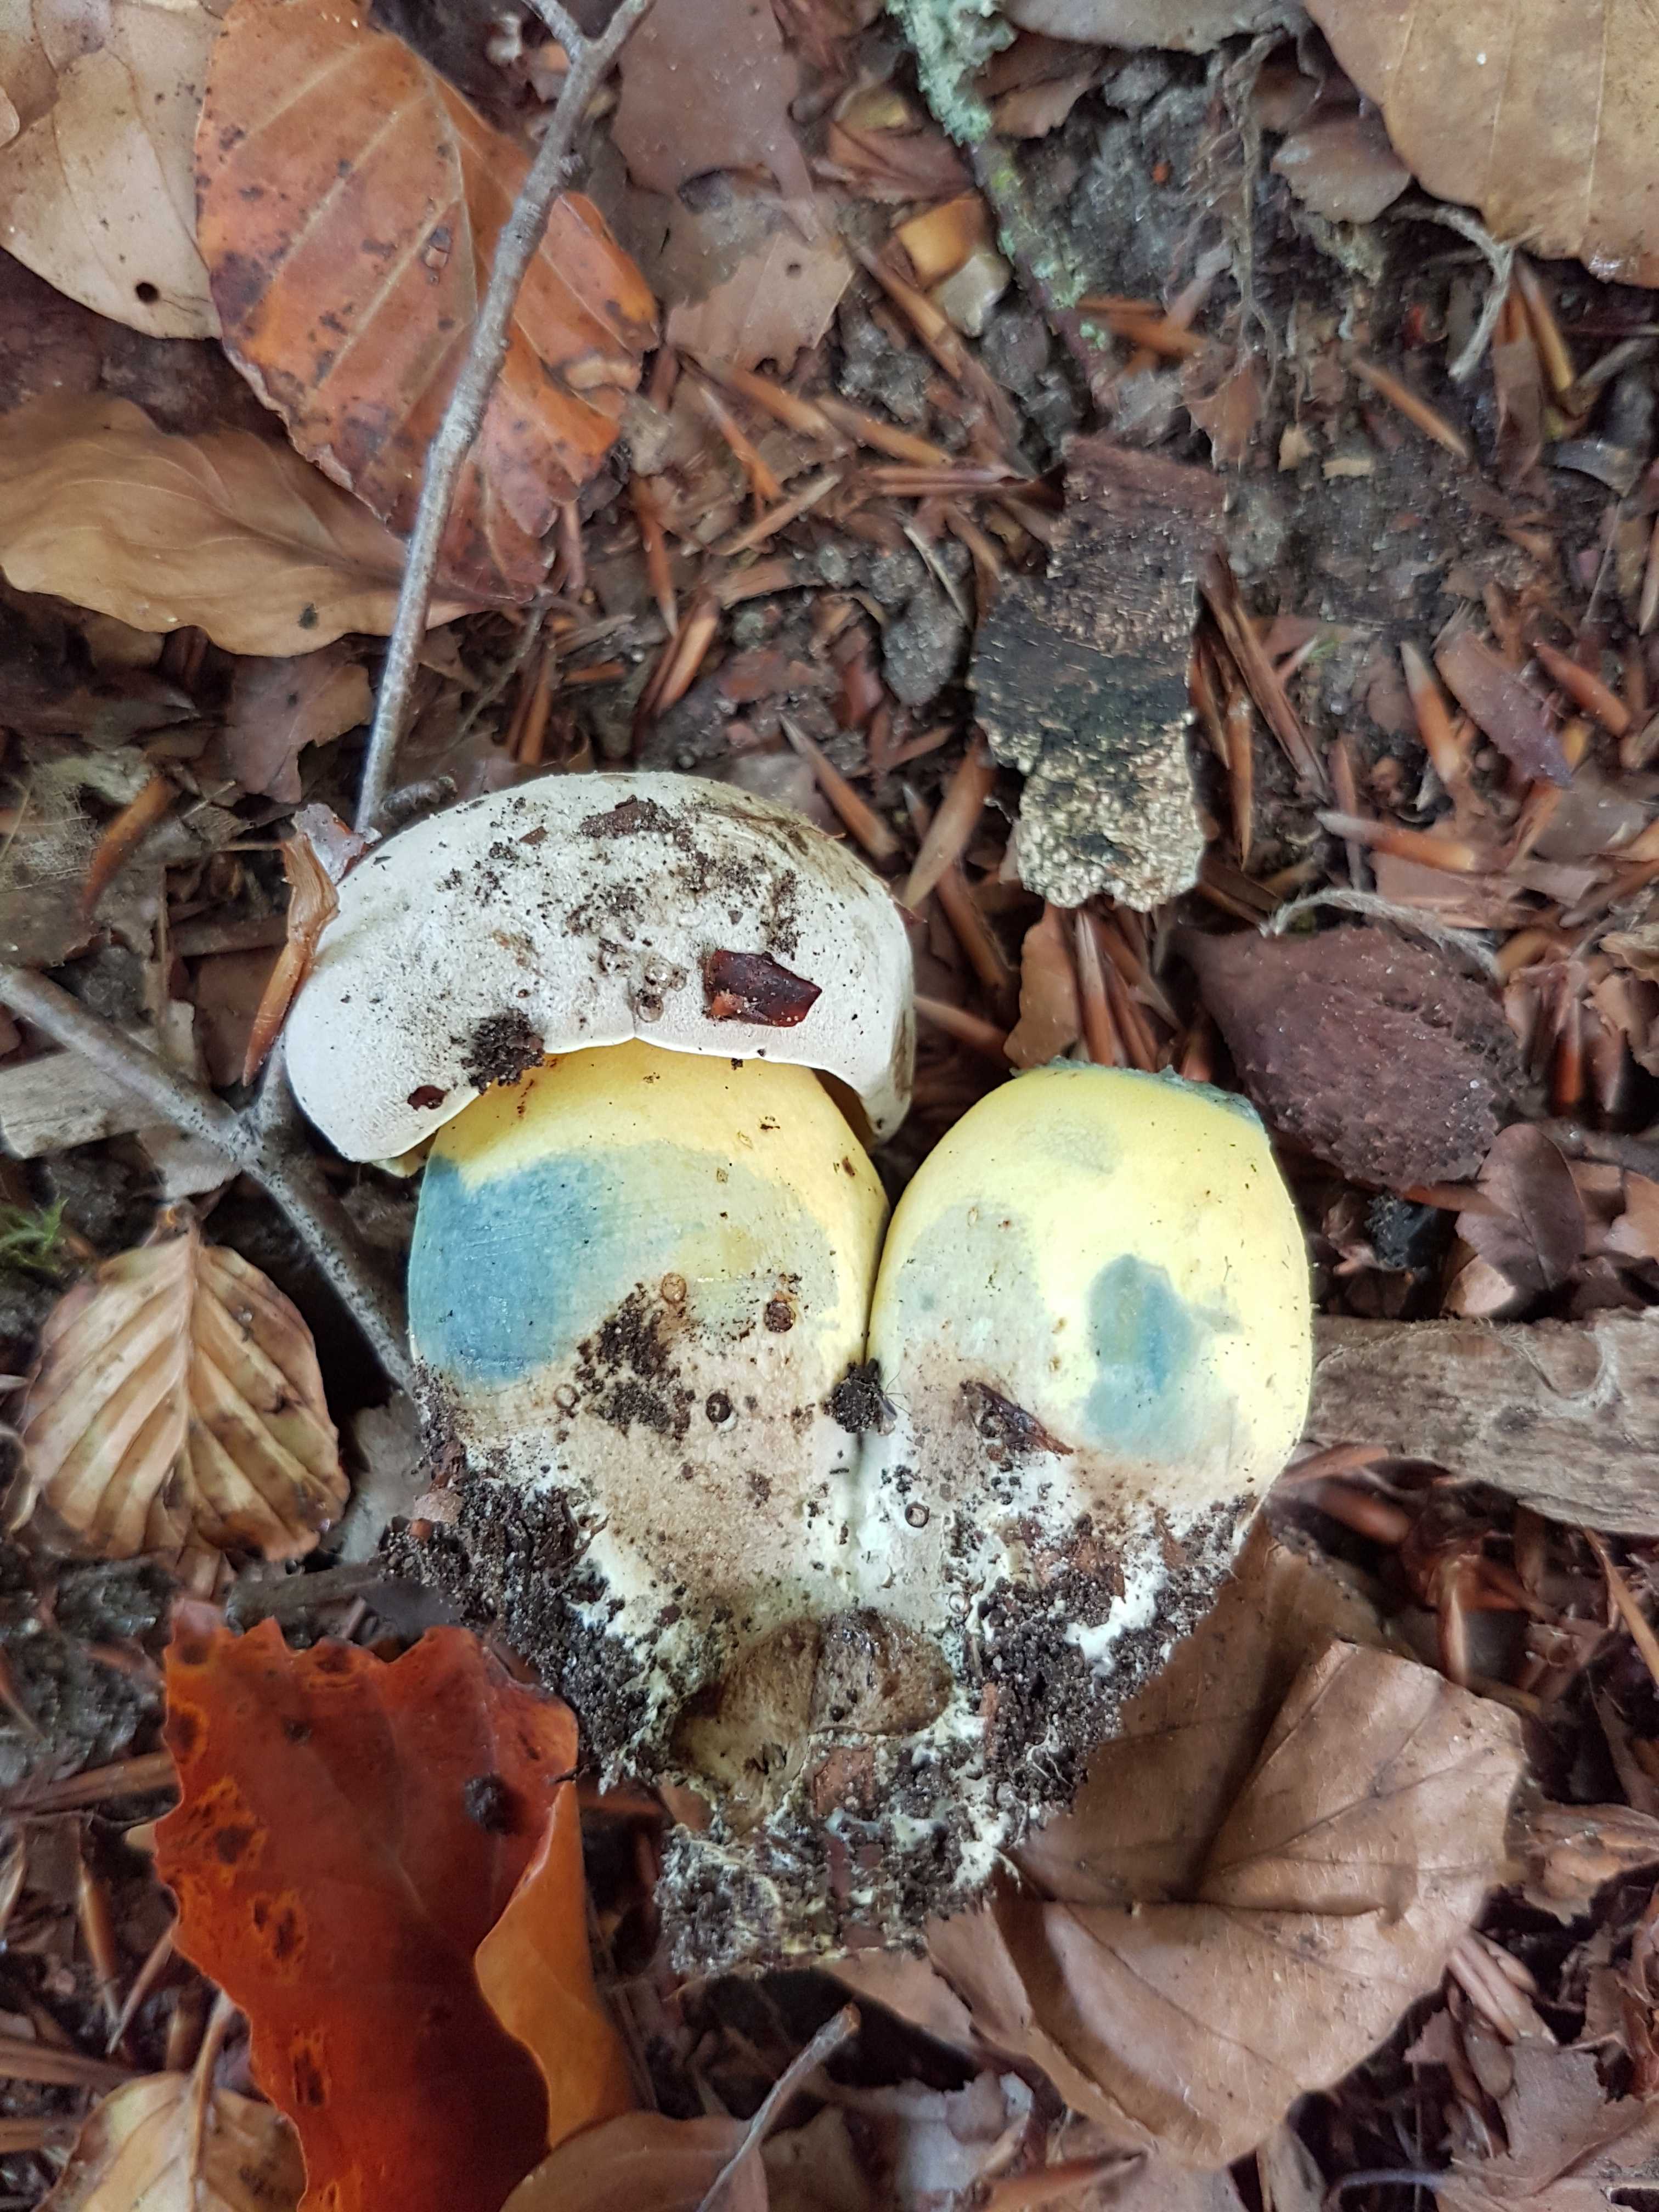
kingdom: Fungi
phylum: Basidiomycota
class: Agaricomycetes
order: Boletales
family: Boletaceae
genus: Caloboletus
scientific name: Caloboletus radicans
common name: rod-rørhat
